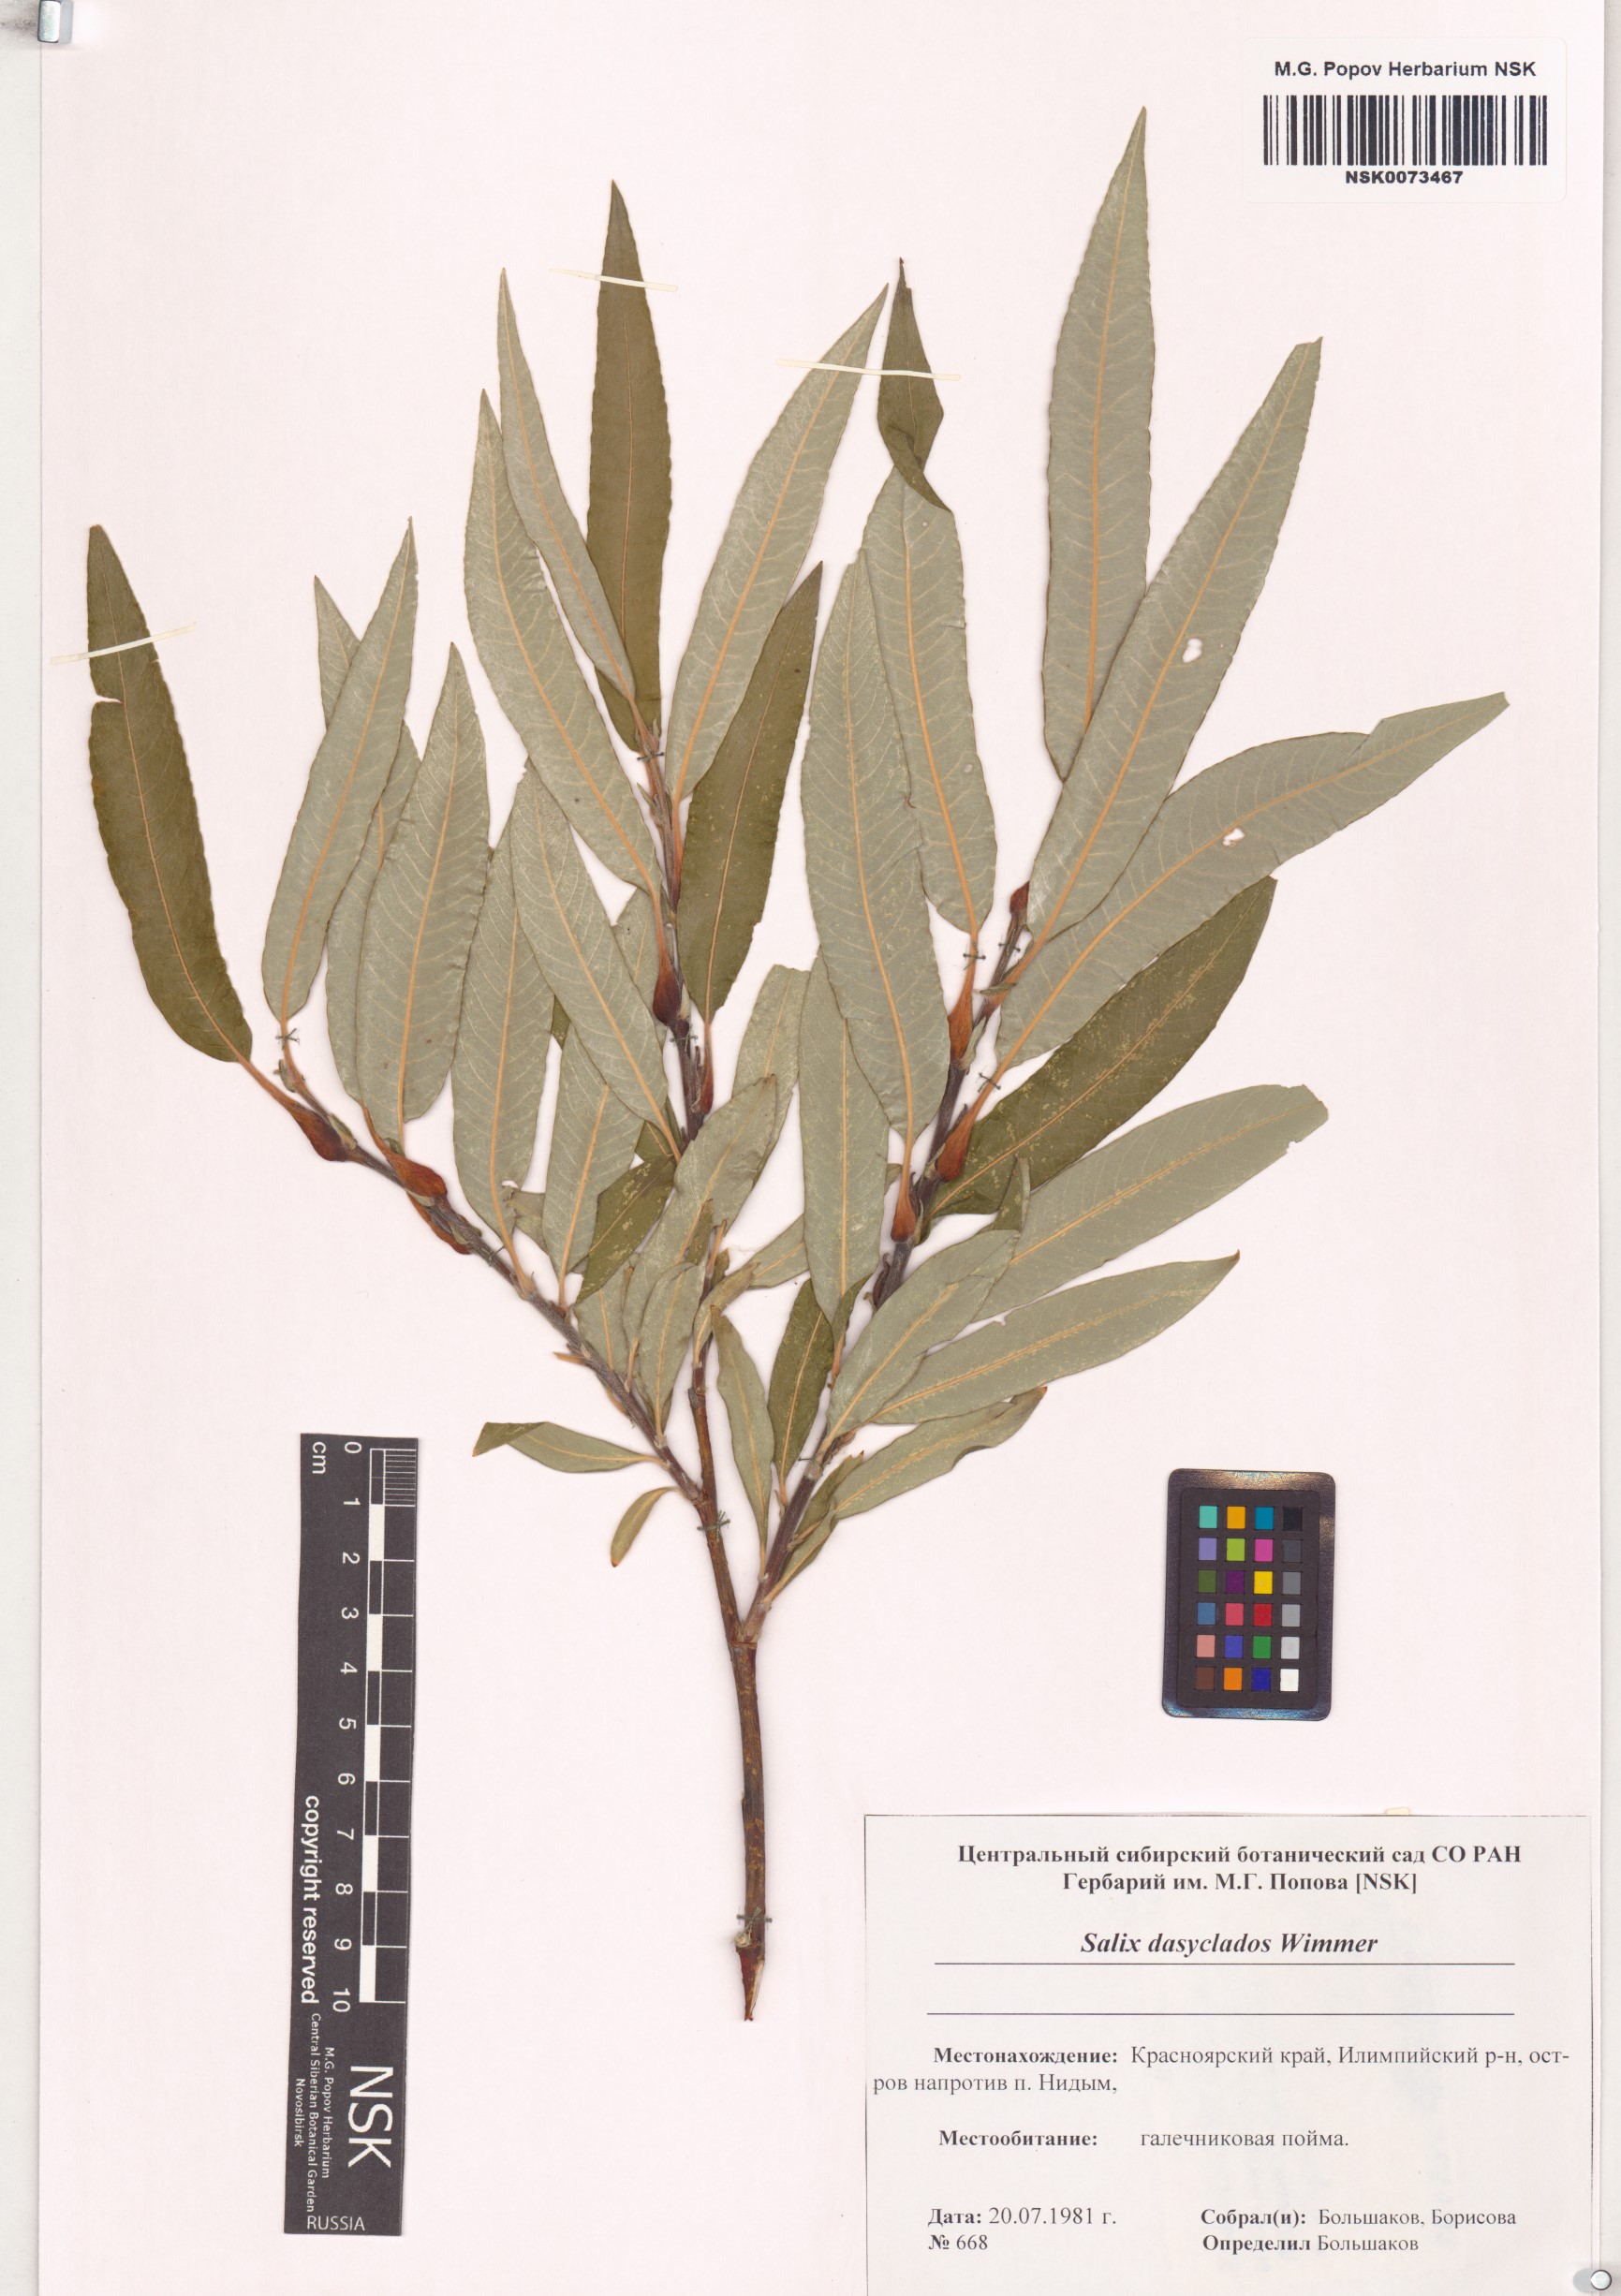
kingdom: Plantae
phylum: Tracheophyta
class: Magnoliopsida
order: Malpighiales
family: Salicaceae
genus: Salix
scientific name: Salix gmelinii
